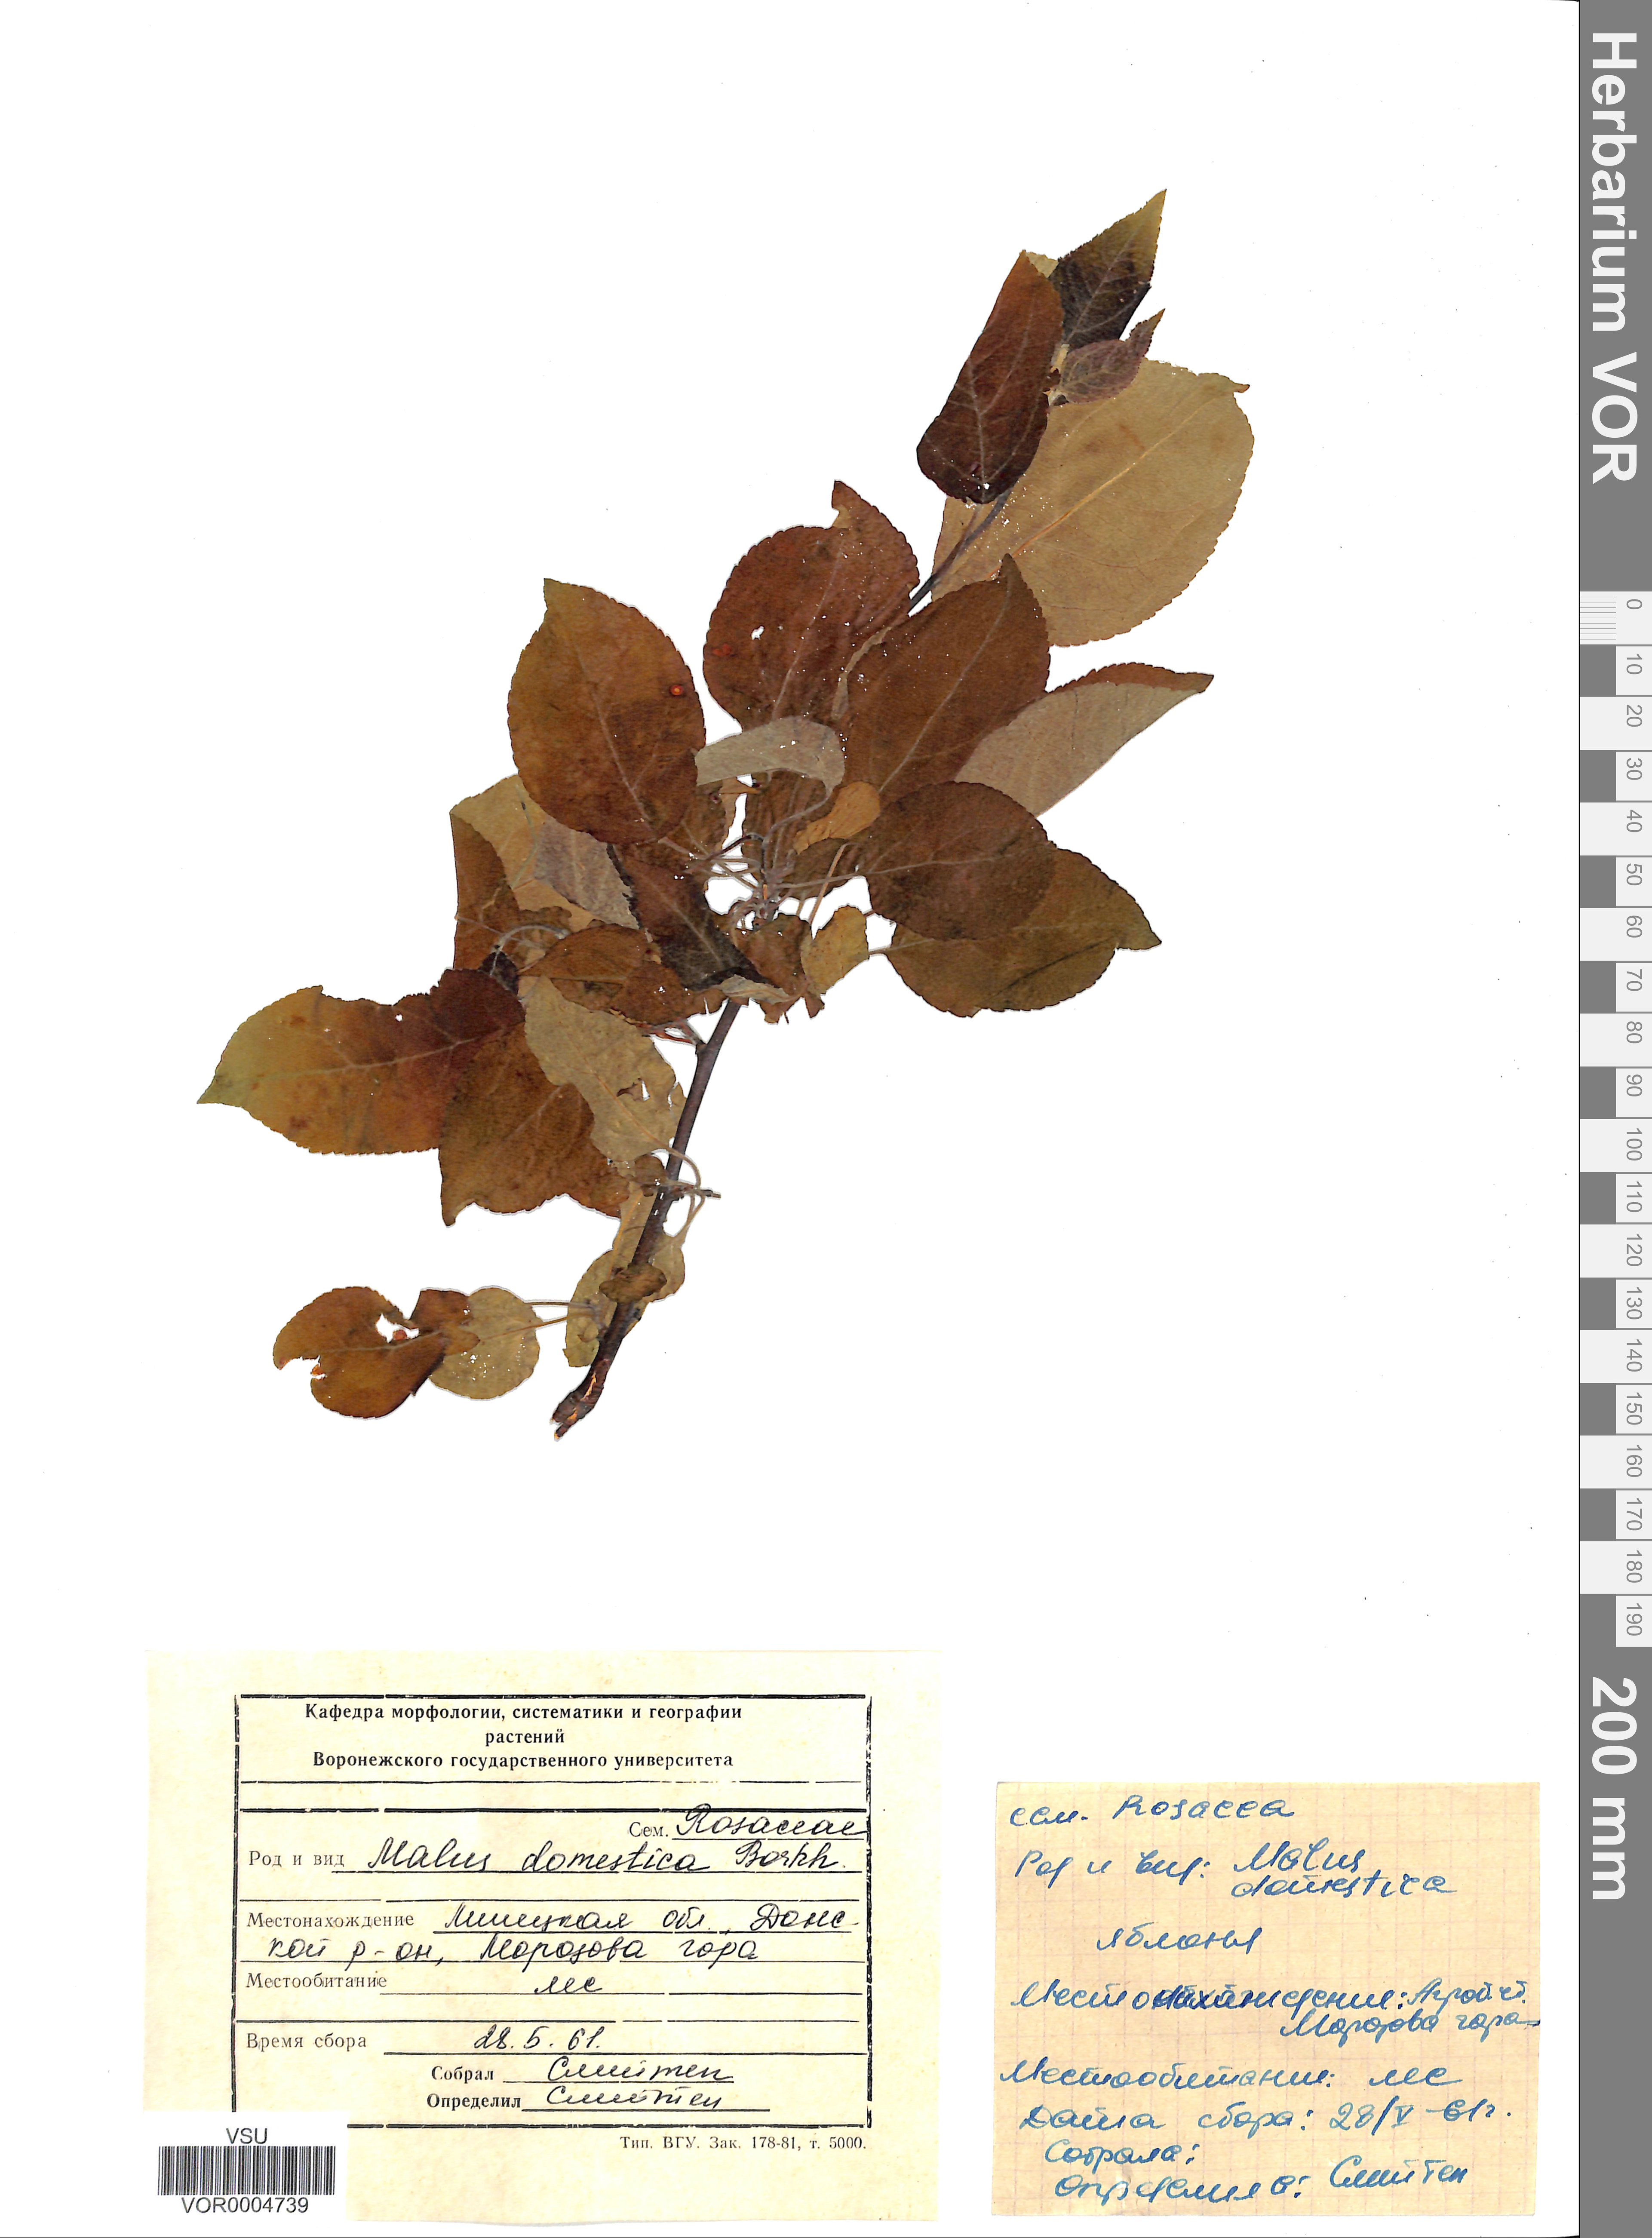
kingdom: Plantae
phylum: Tracheophyta
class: Magnoliopsida
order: Rosales
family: Rosaceae
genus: Malus
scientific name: Malus domestica
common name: Apple
